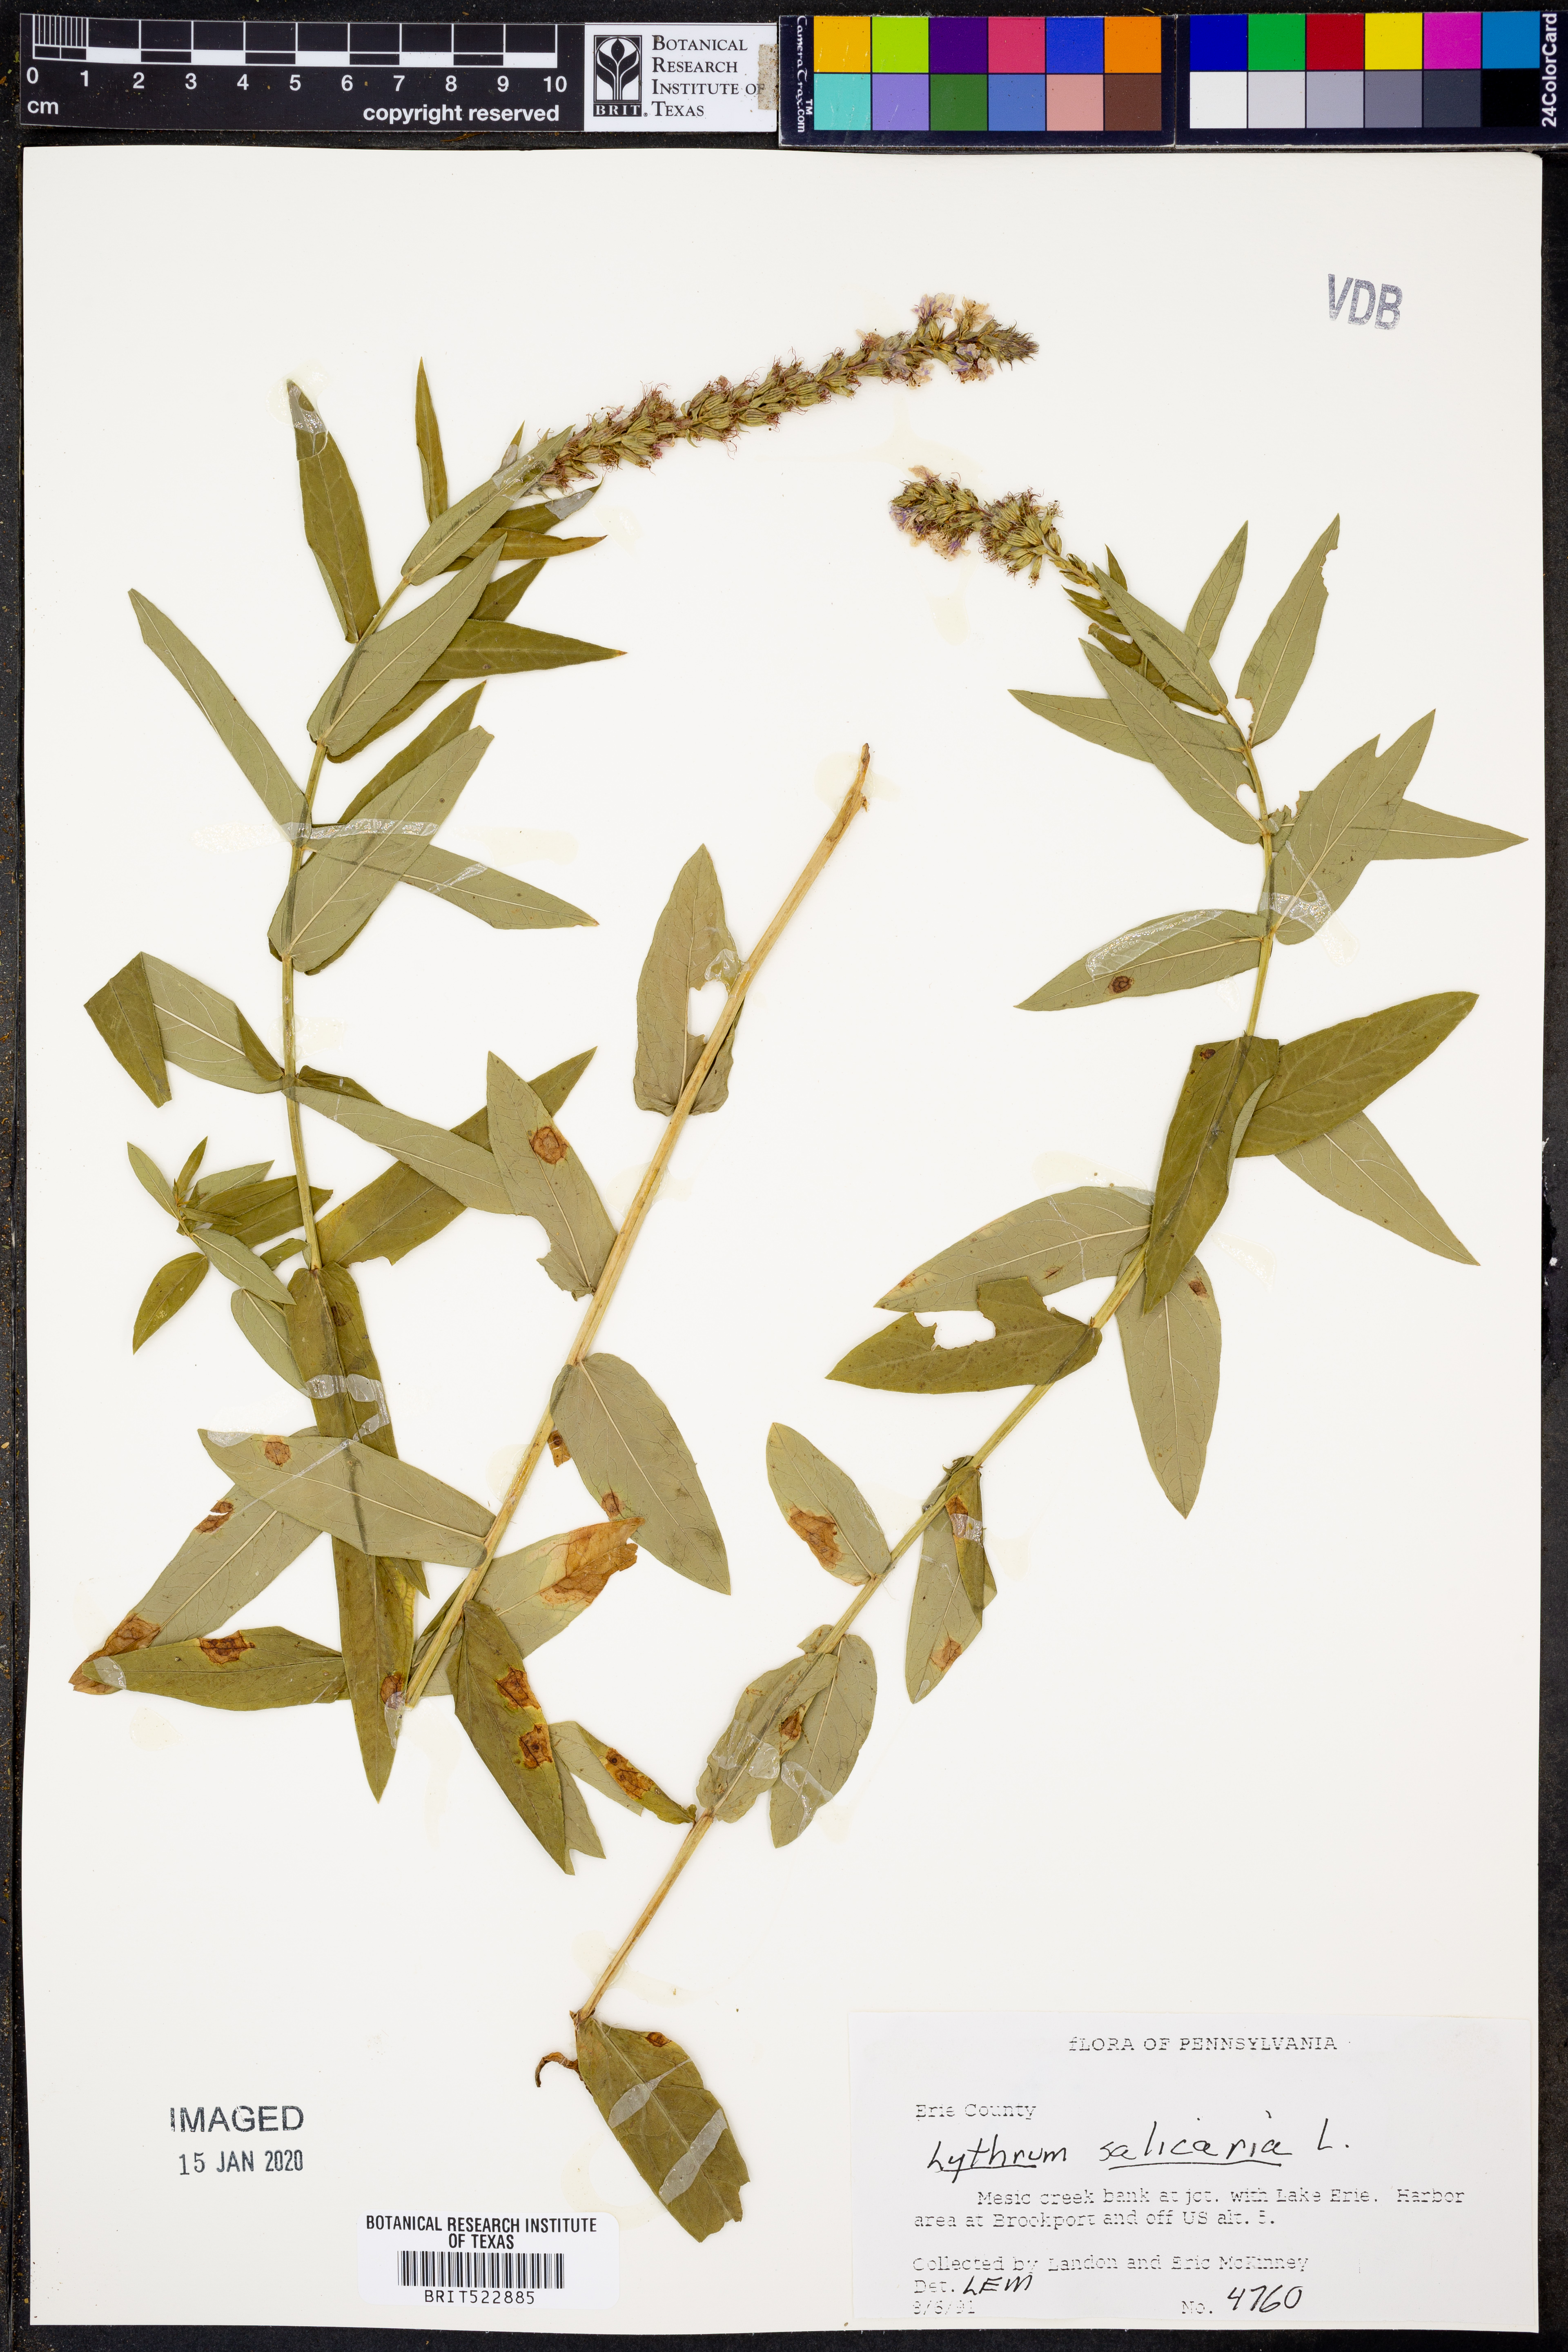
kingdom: Plantae
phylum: Tracheophyta
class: Magnoliopsida
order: Myrtales
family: Lythraceae
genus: Lythrum
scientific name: Lythrum salicaria
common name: Purple loosestrife
